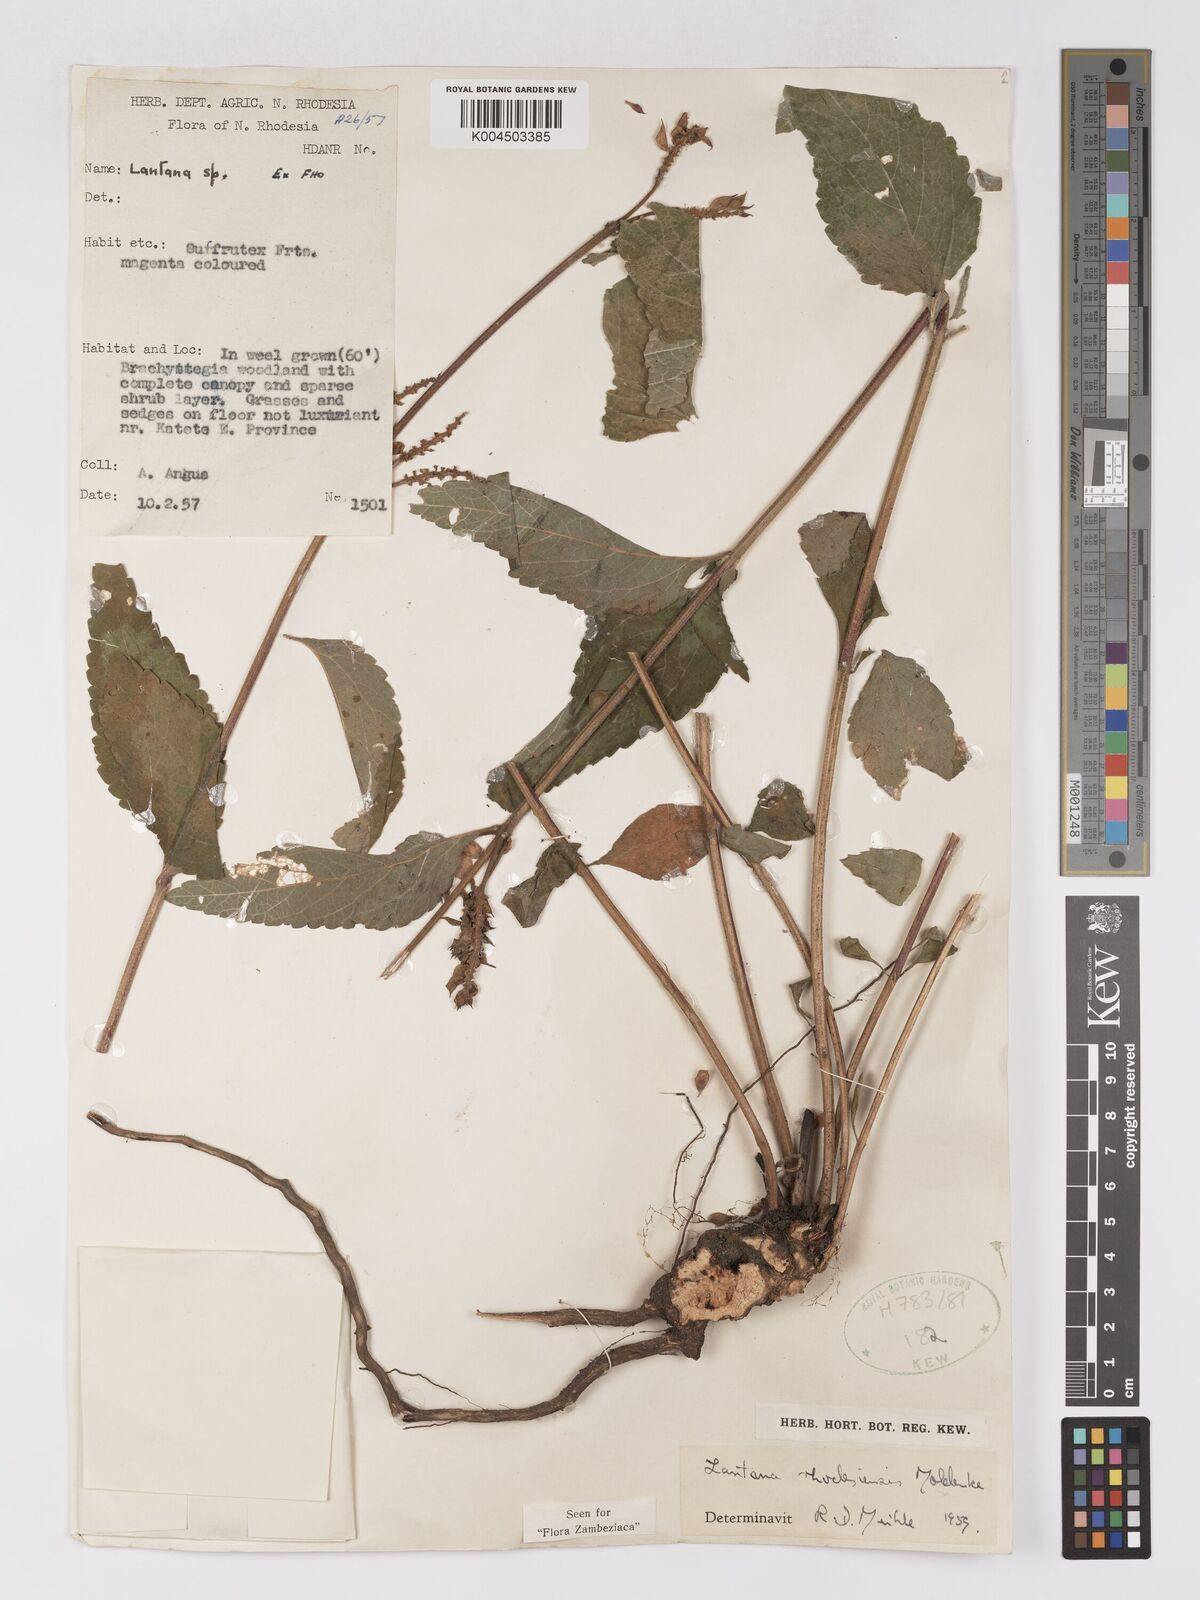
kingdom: Plantae
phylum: Tracheophyta
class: Magnoliopsida
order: Lamiales
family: Verbenaceae
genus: Lantana
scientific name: Lantana ukambensis
